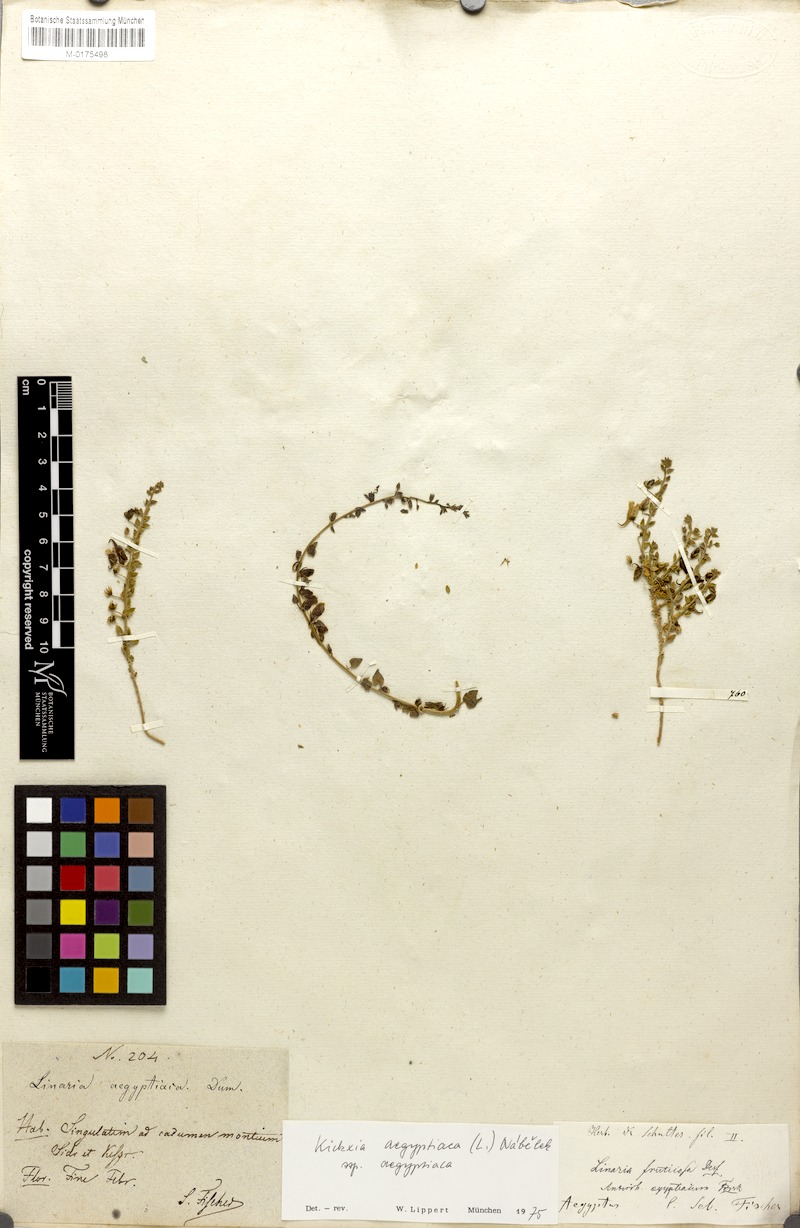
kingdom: Plantae
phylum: Tracheophyta
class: Magnoliopsida
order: Lamiales
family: Plantaginaceae
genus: Kickxia
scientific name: Kickxia aegyptiaca
